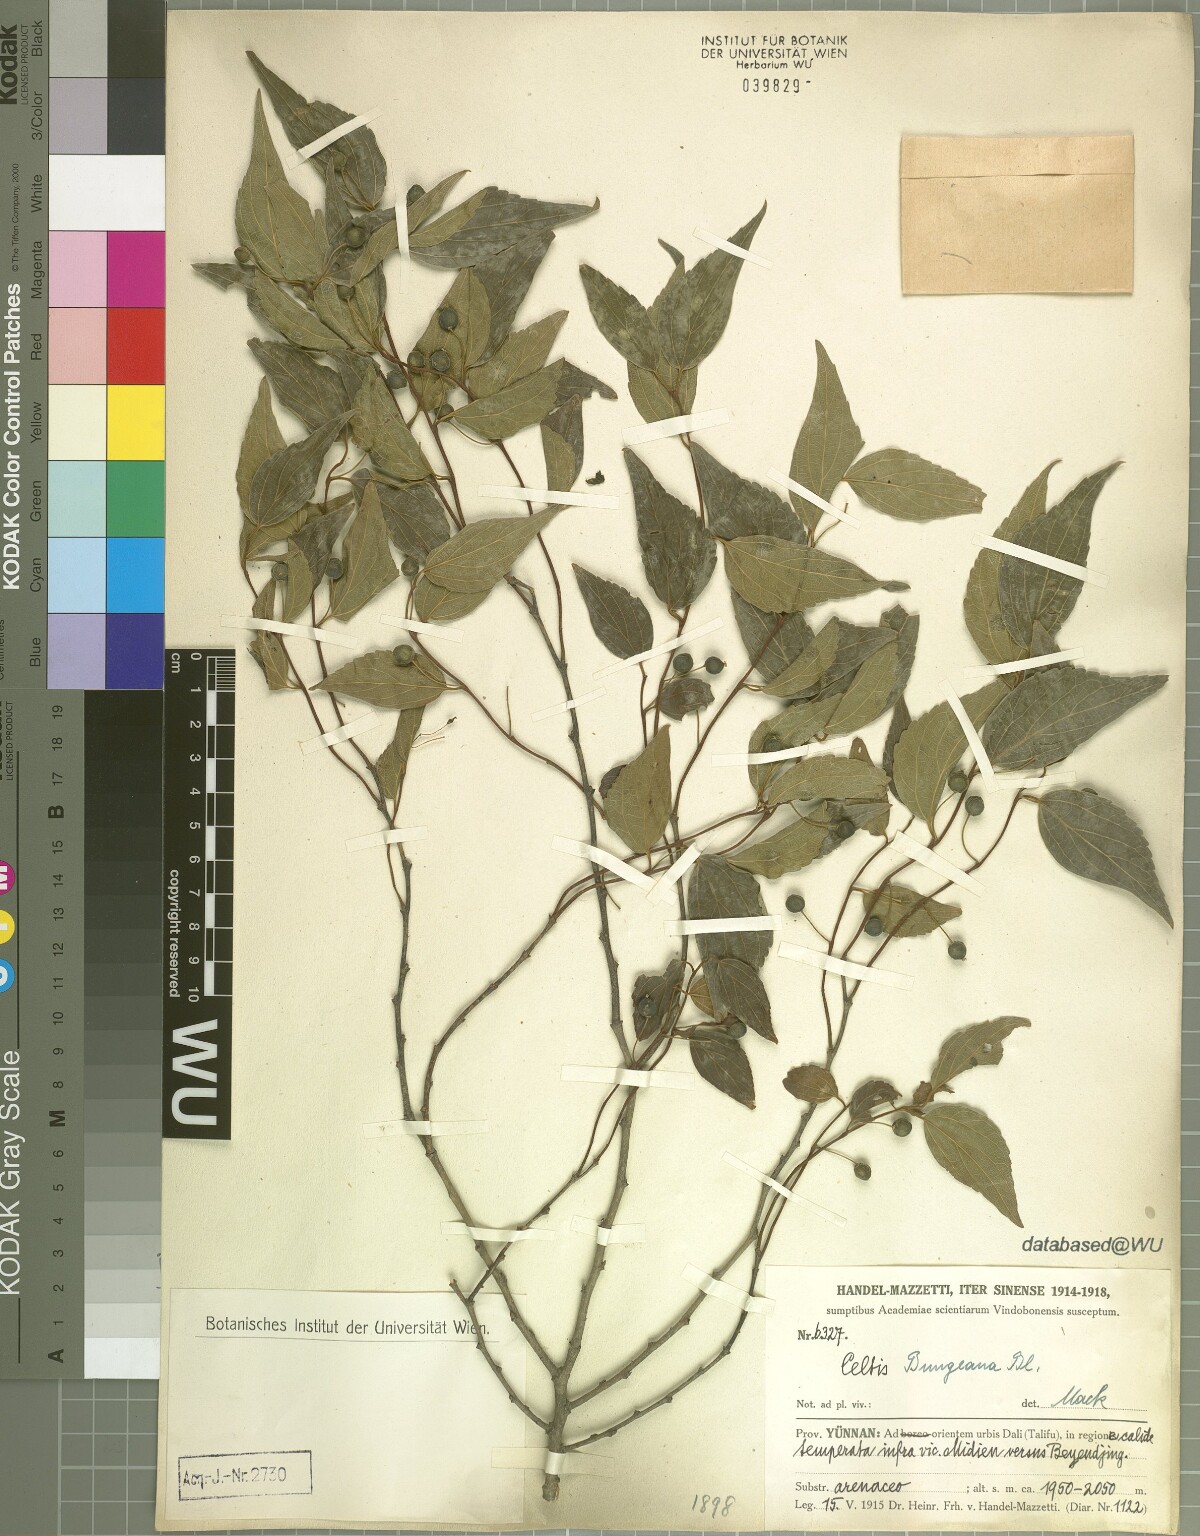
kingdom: Plantae
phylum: Tracheophyta
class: Magnoliopsida
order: Rosales
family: Cannabaceae
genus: Celtis
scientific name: Celtis bungeana
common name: Bunge's hackberry
